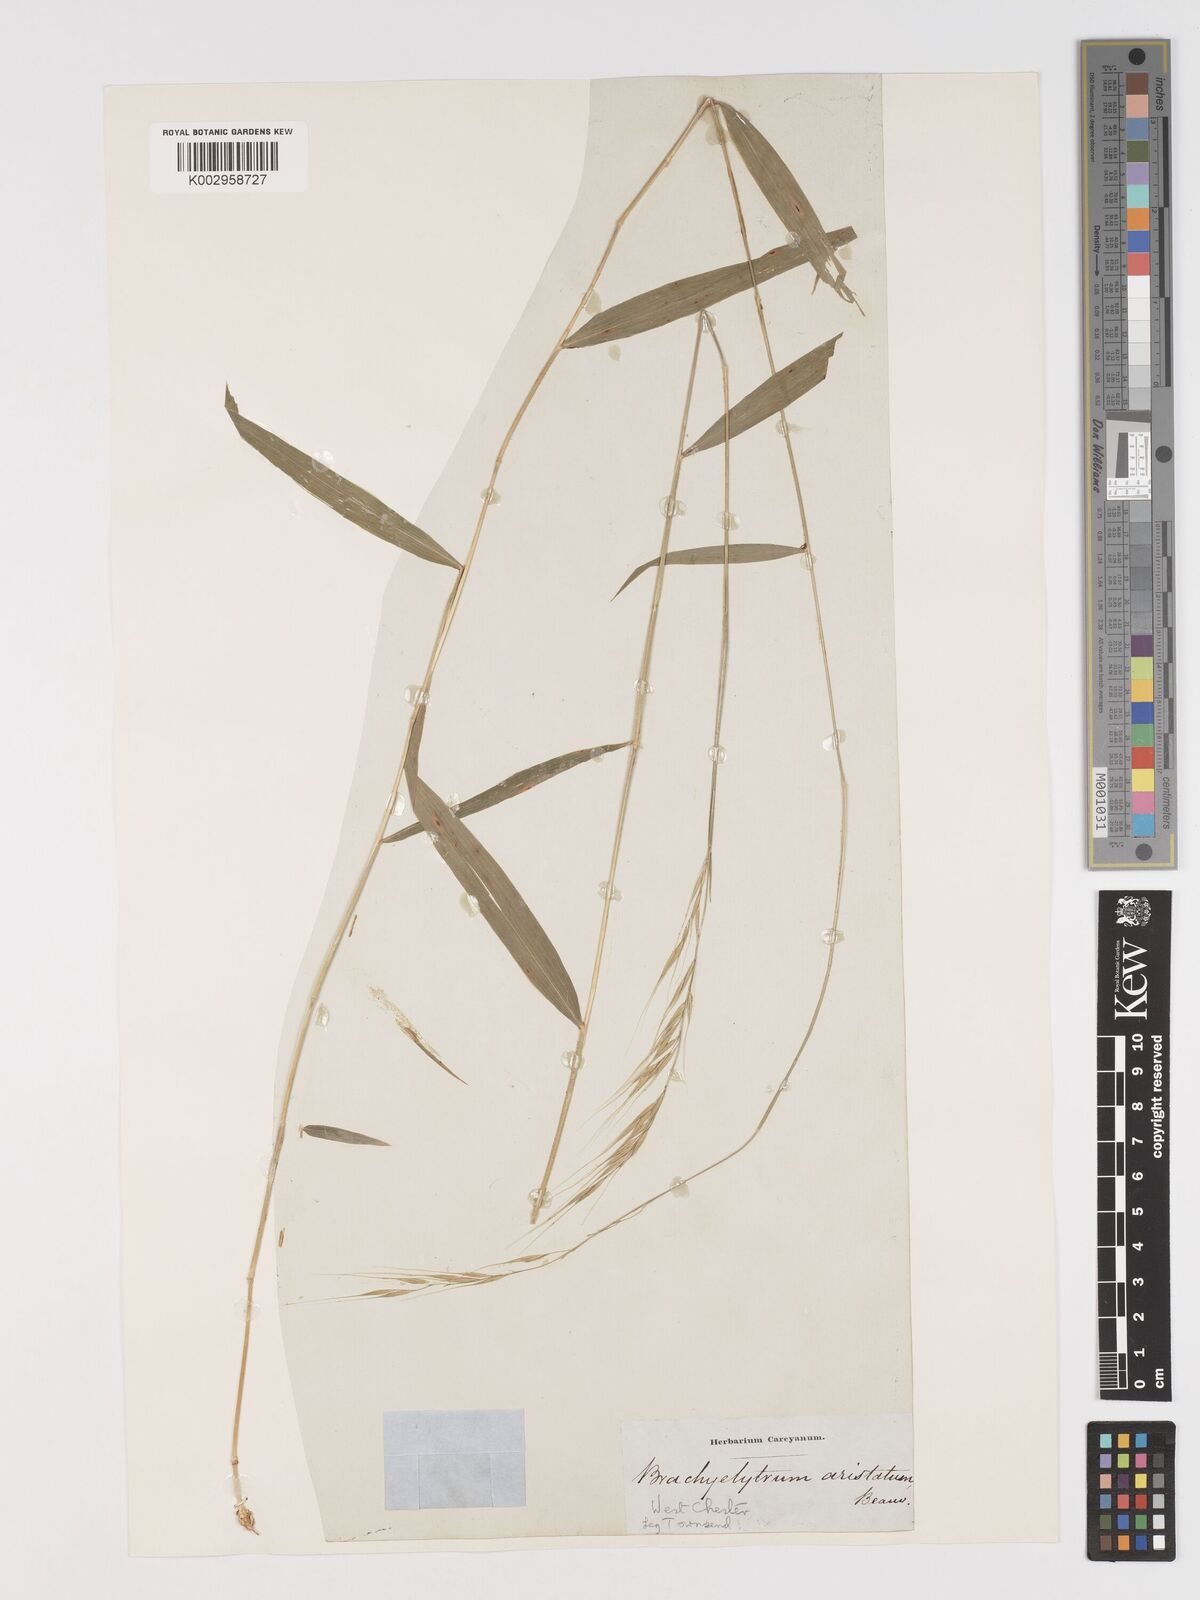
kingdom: Plantae
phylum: Tracheophyta
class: Liliopsida
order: Poales
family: Poaceae
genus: Brachyelytrum
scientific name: Brachyelytrum erectum
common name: Bearded shorthusk
